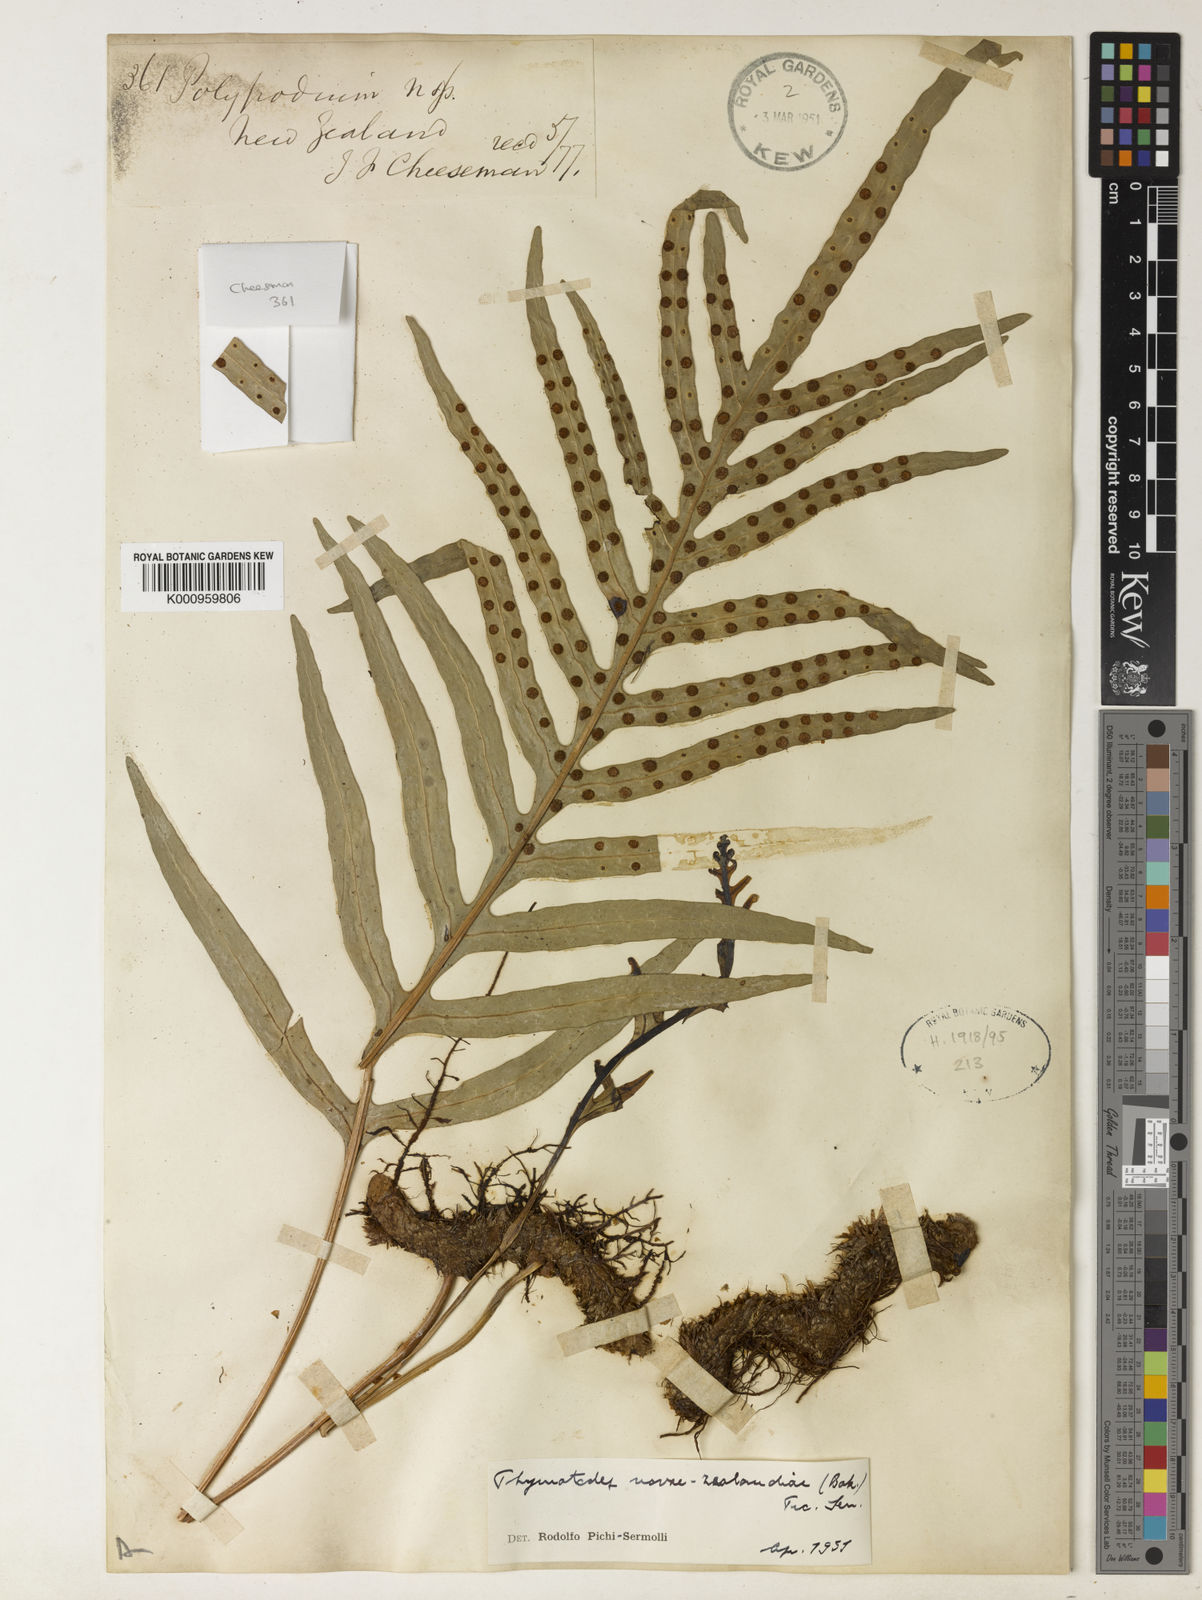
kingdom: Plantae
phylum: Tracheophyta
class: Polypodiopsida
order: Polypodiales
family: Polypodiaceae
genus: Lecanopteris
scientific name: Lecanopteris novae-zealandiae
